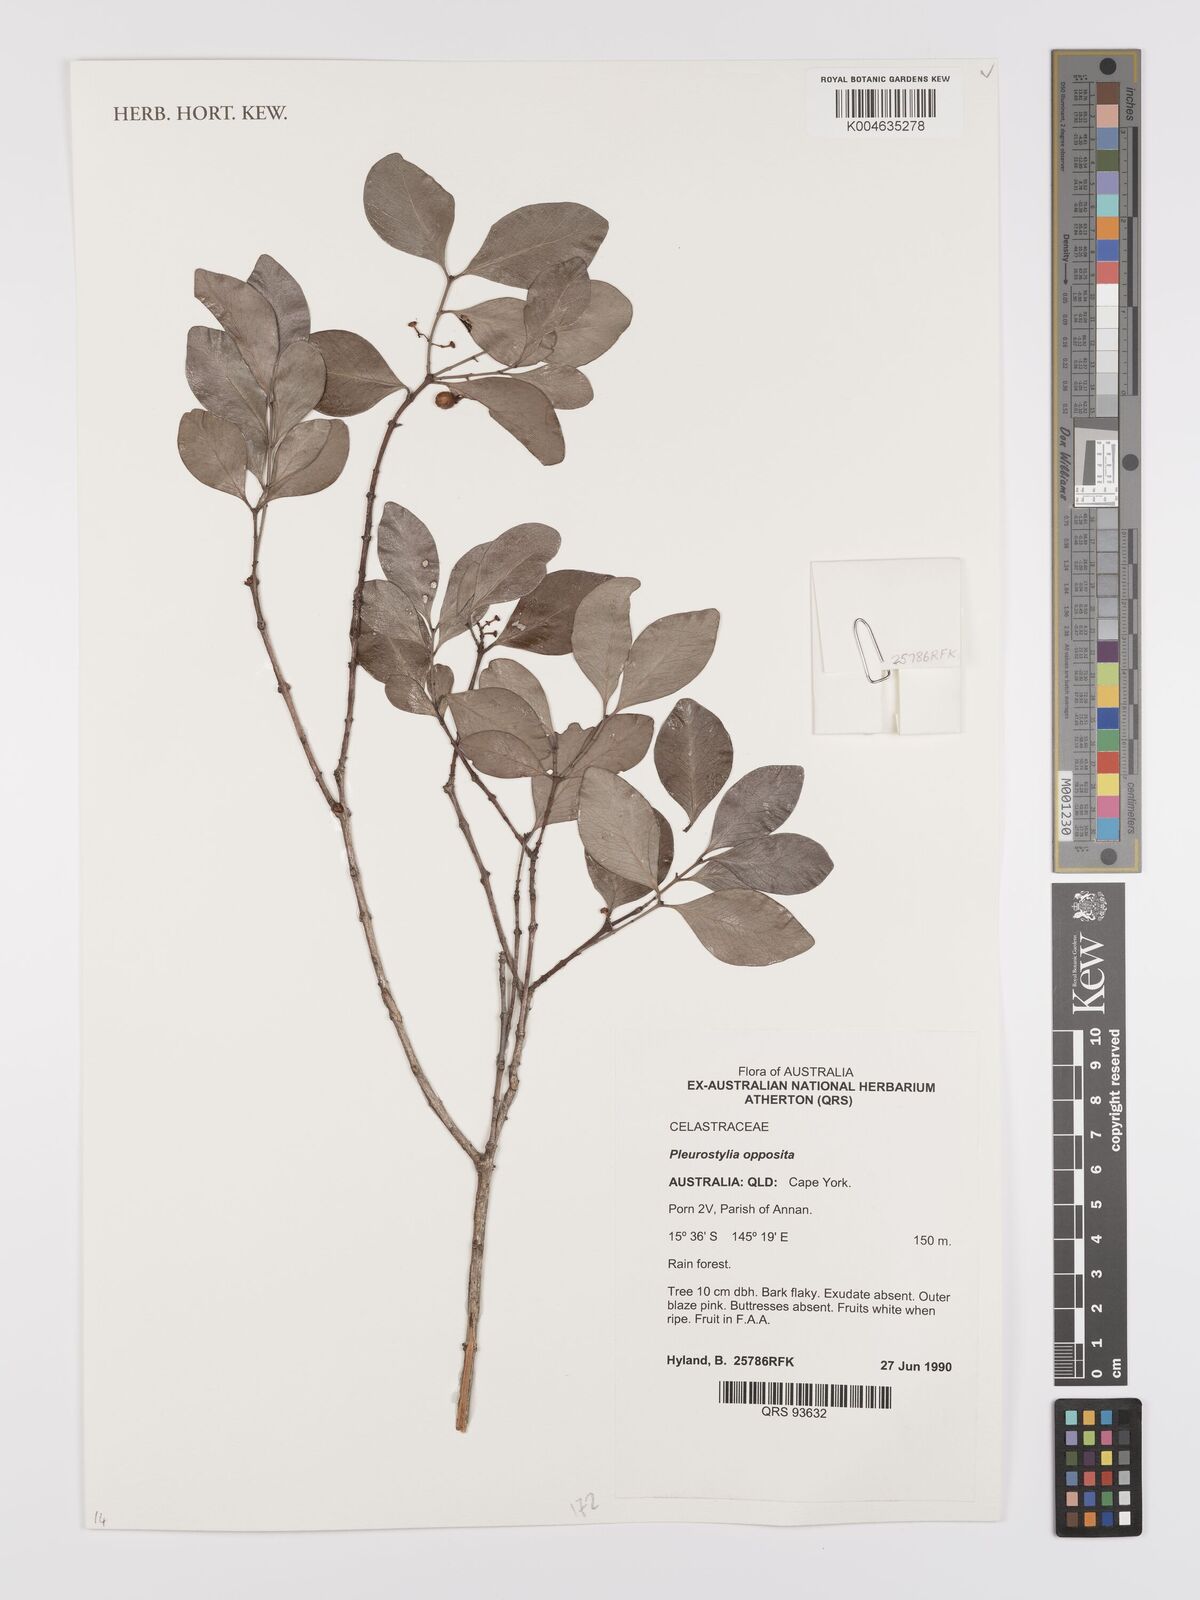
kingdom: Plantae
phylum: Tracheophyta
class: Magnoliopsida
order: Celastrales
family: Celastraceae
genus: Pleurostylia
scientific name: Pleurostylia opposita
